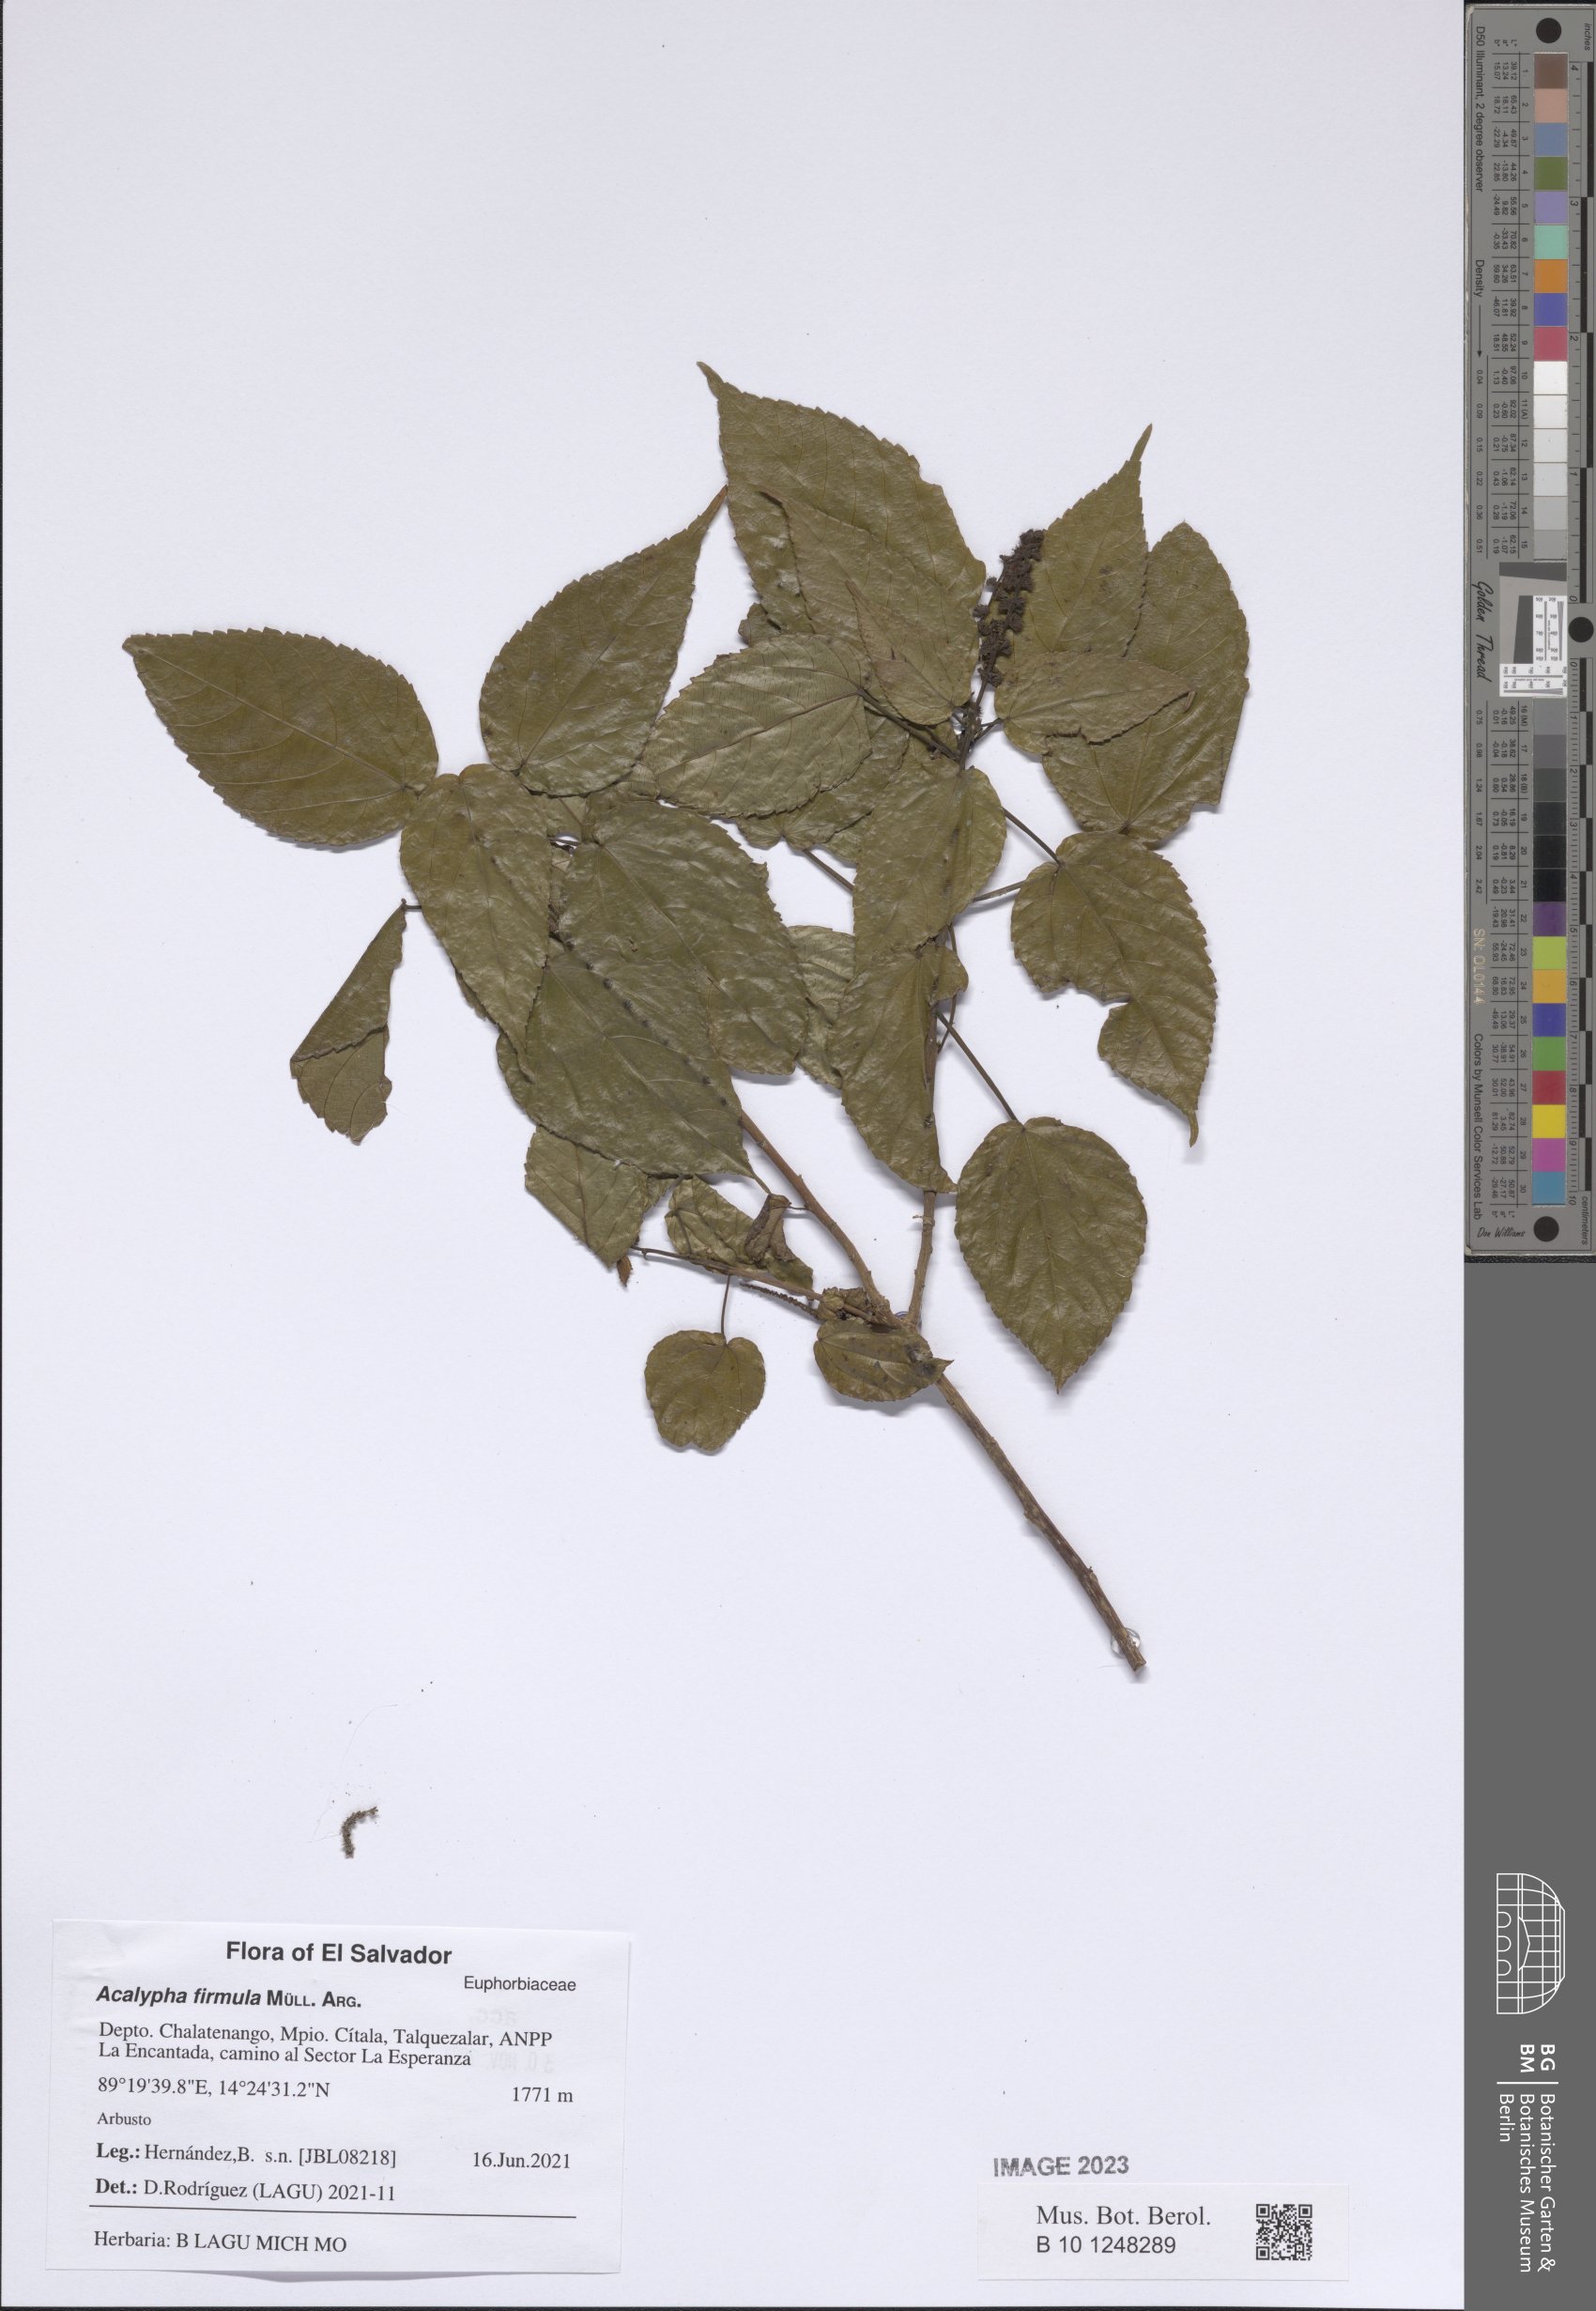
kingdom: Plantae
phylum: Tracheophyta
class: Magnoliopsida
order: Malpighiales
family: Euphorbiaceae
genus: Acalypha
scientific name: Acalypha firmula
